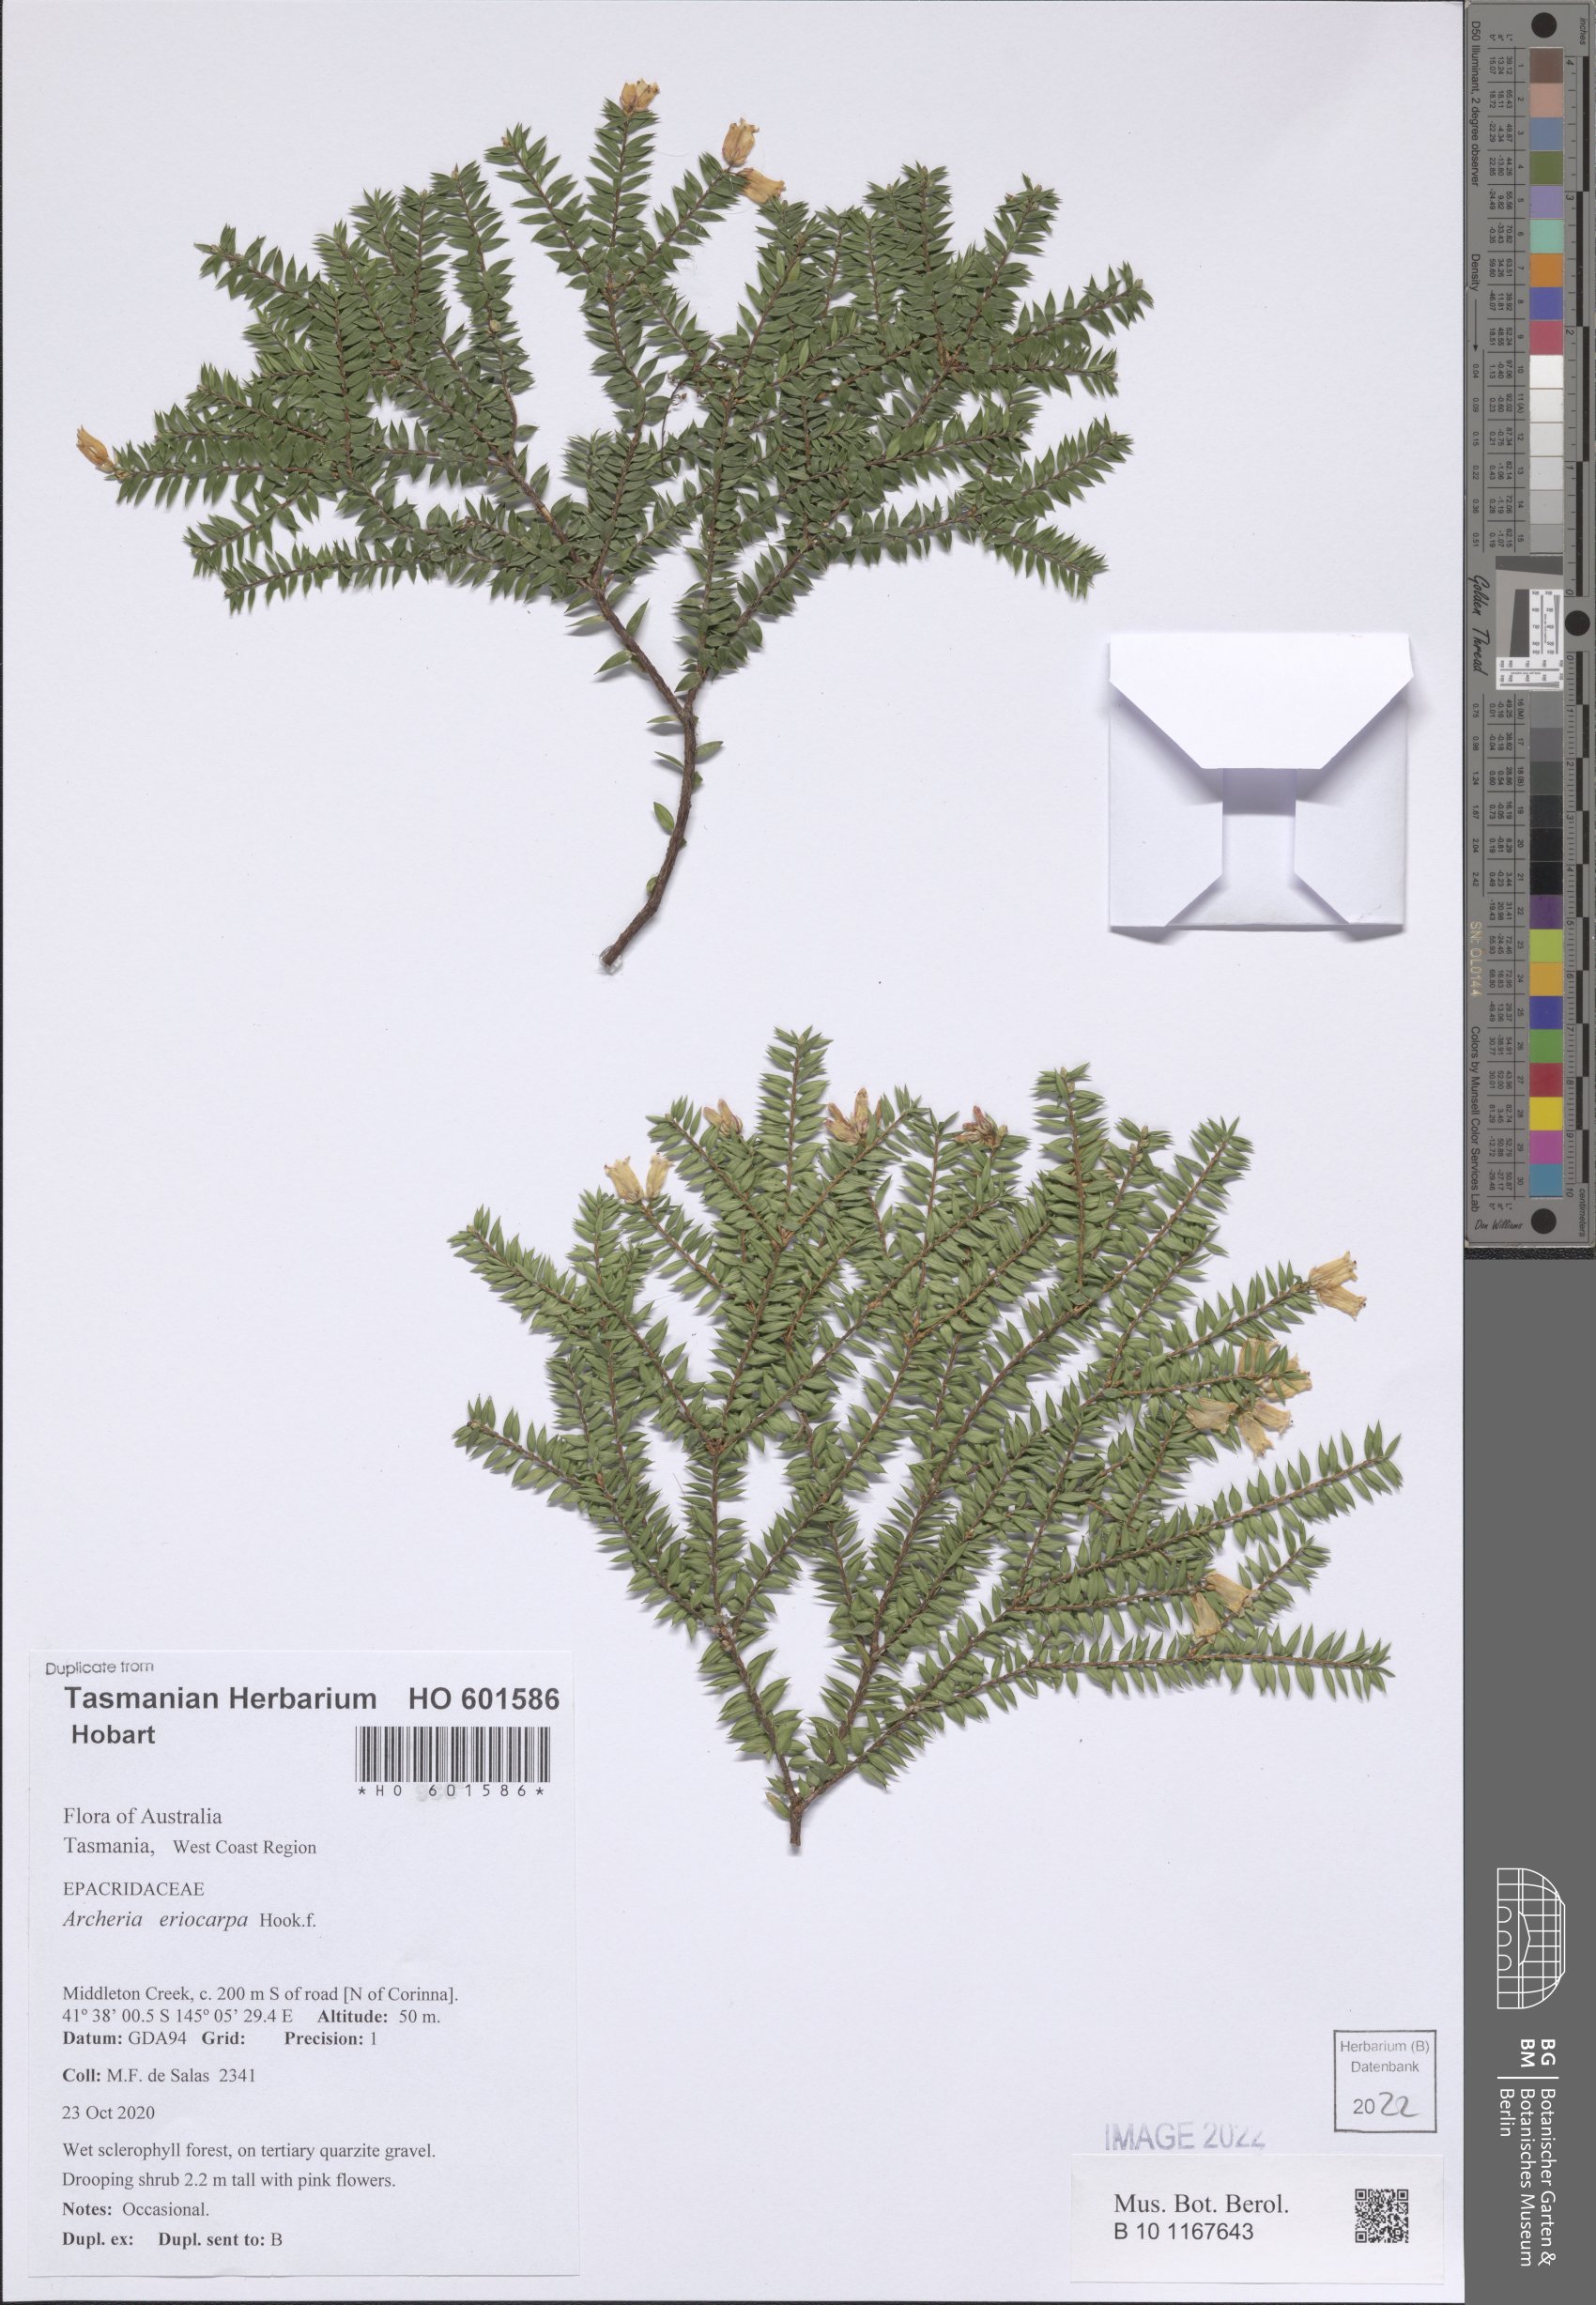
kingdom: Plantae
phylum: Tracheophyta
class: Magnoliopsida
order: Ericales
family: Ericaceae
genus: Archeria
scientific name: Archeria eriocarpa
